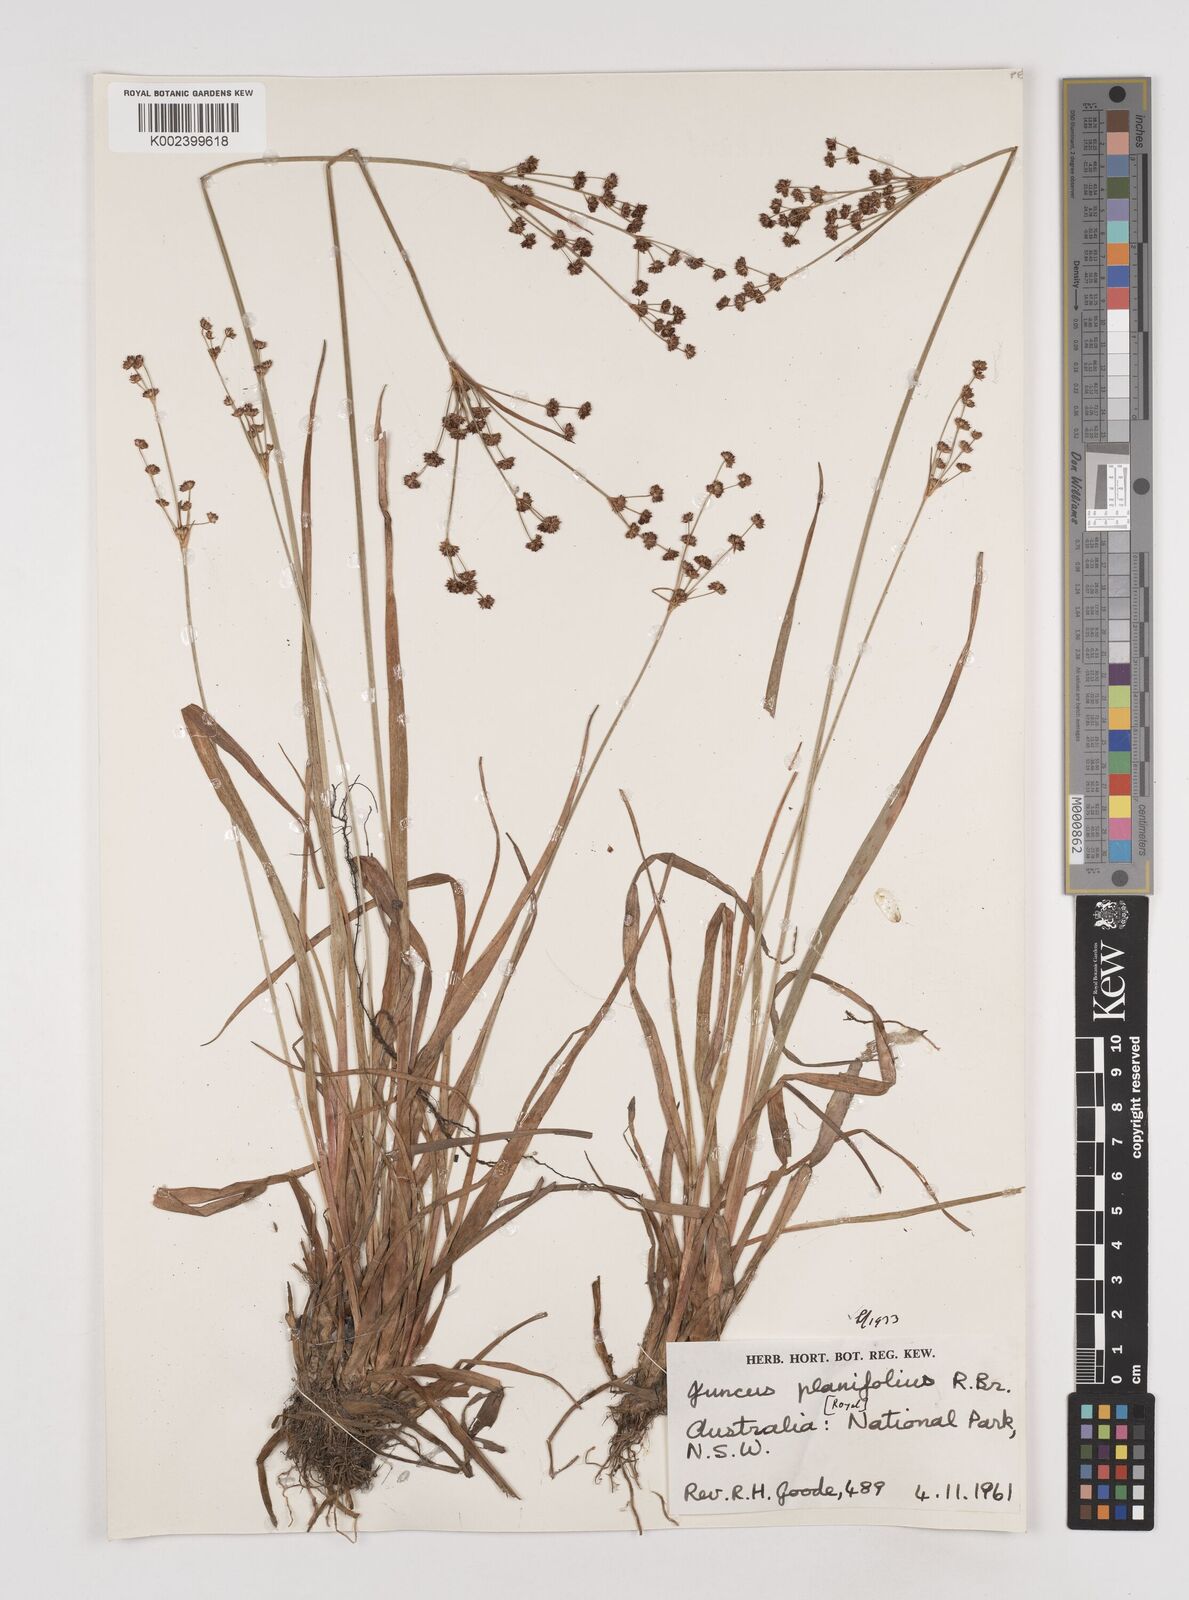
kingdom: Plantae
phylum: Tracheophyta
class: Liliopsida
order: Poales
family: Juncaceae
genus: Juncus
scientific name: Juncus planifolius
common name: Broadleaf rush
